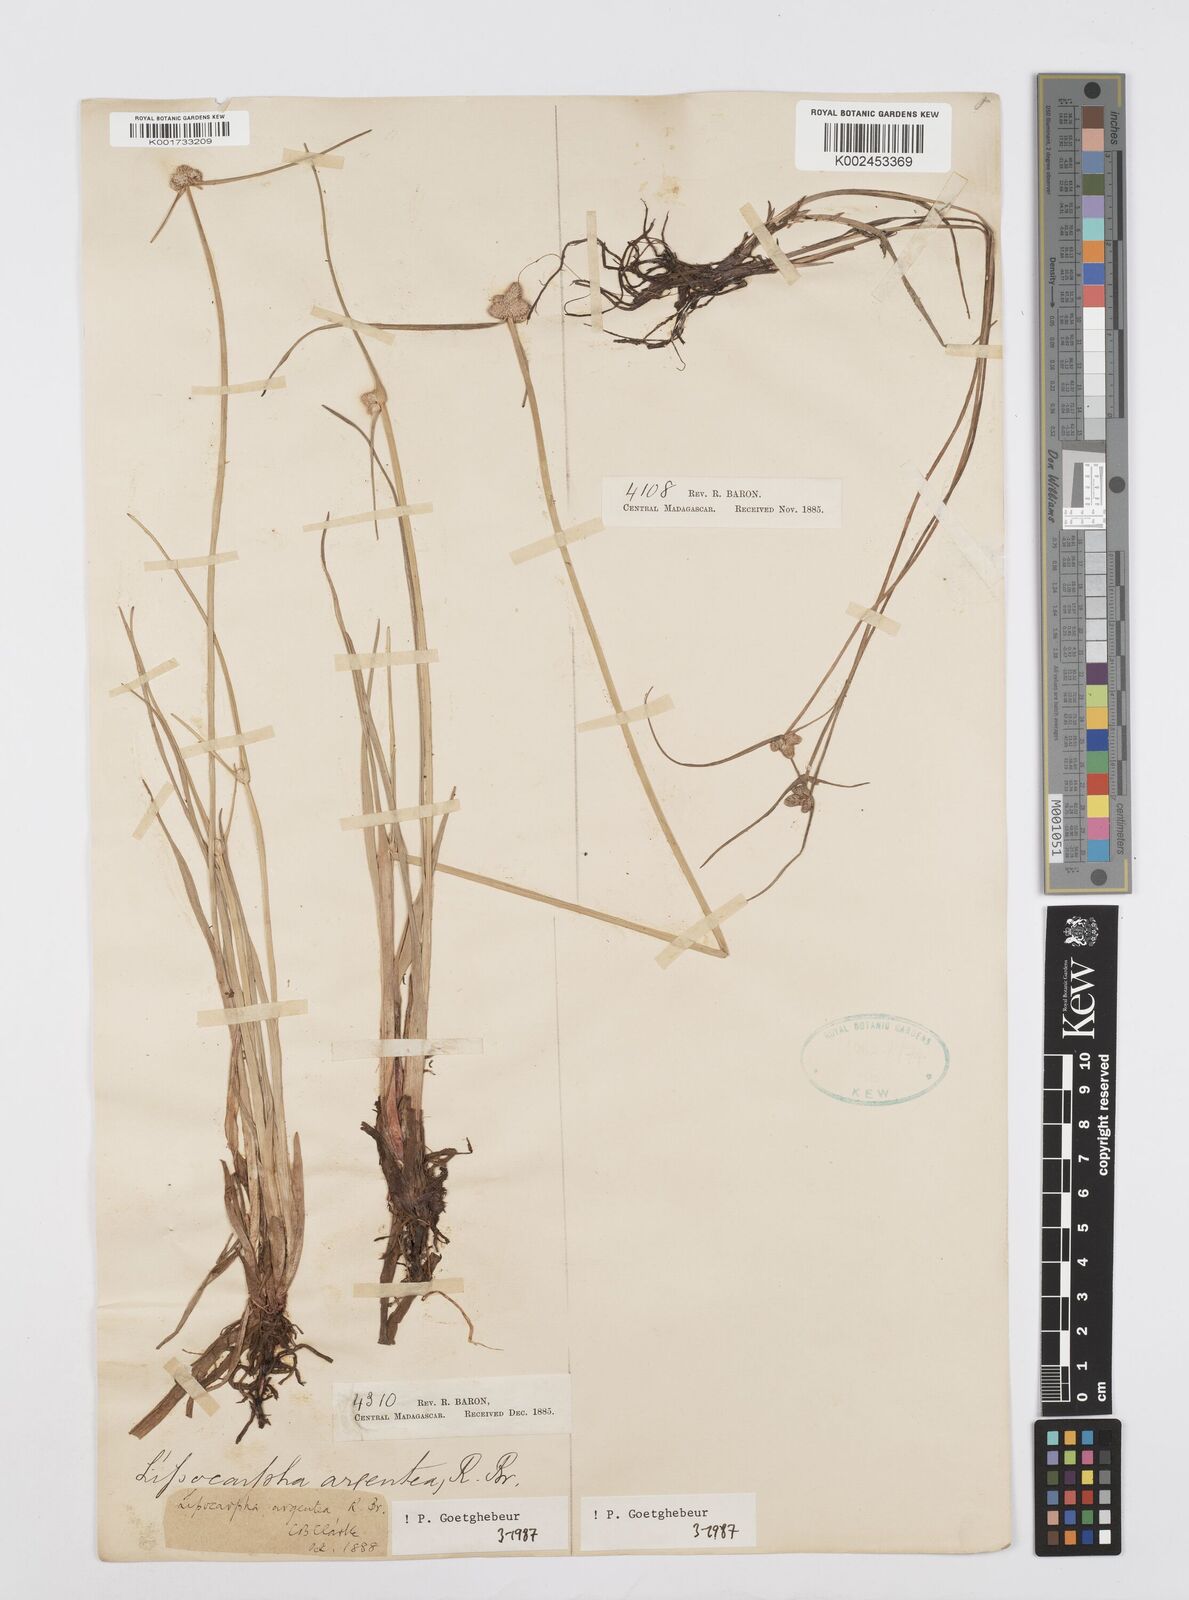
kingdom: Plantae
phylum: Tracheophyta
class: Liliopsida
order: Poales
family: Cyperaceae
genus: Cyperus
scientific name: Cyperus
